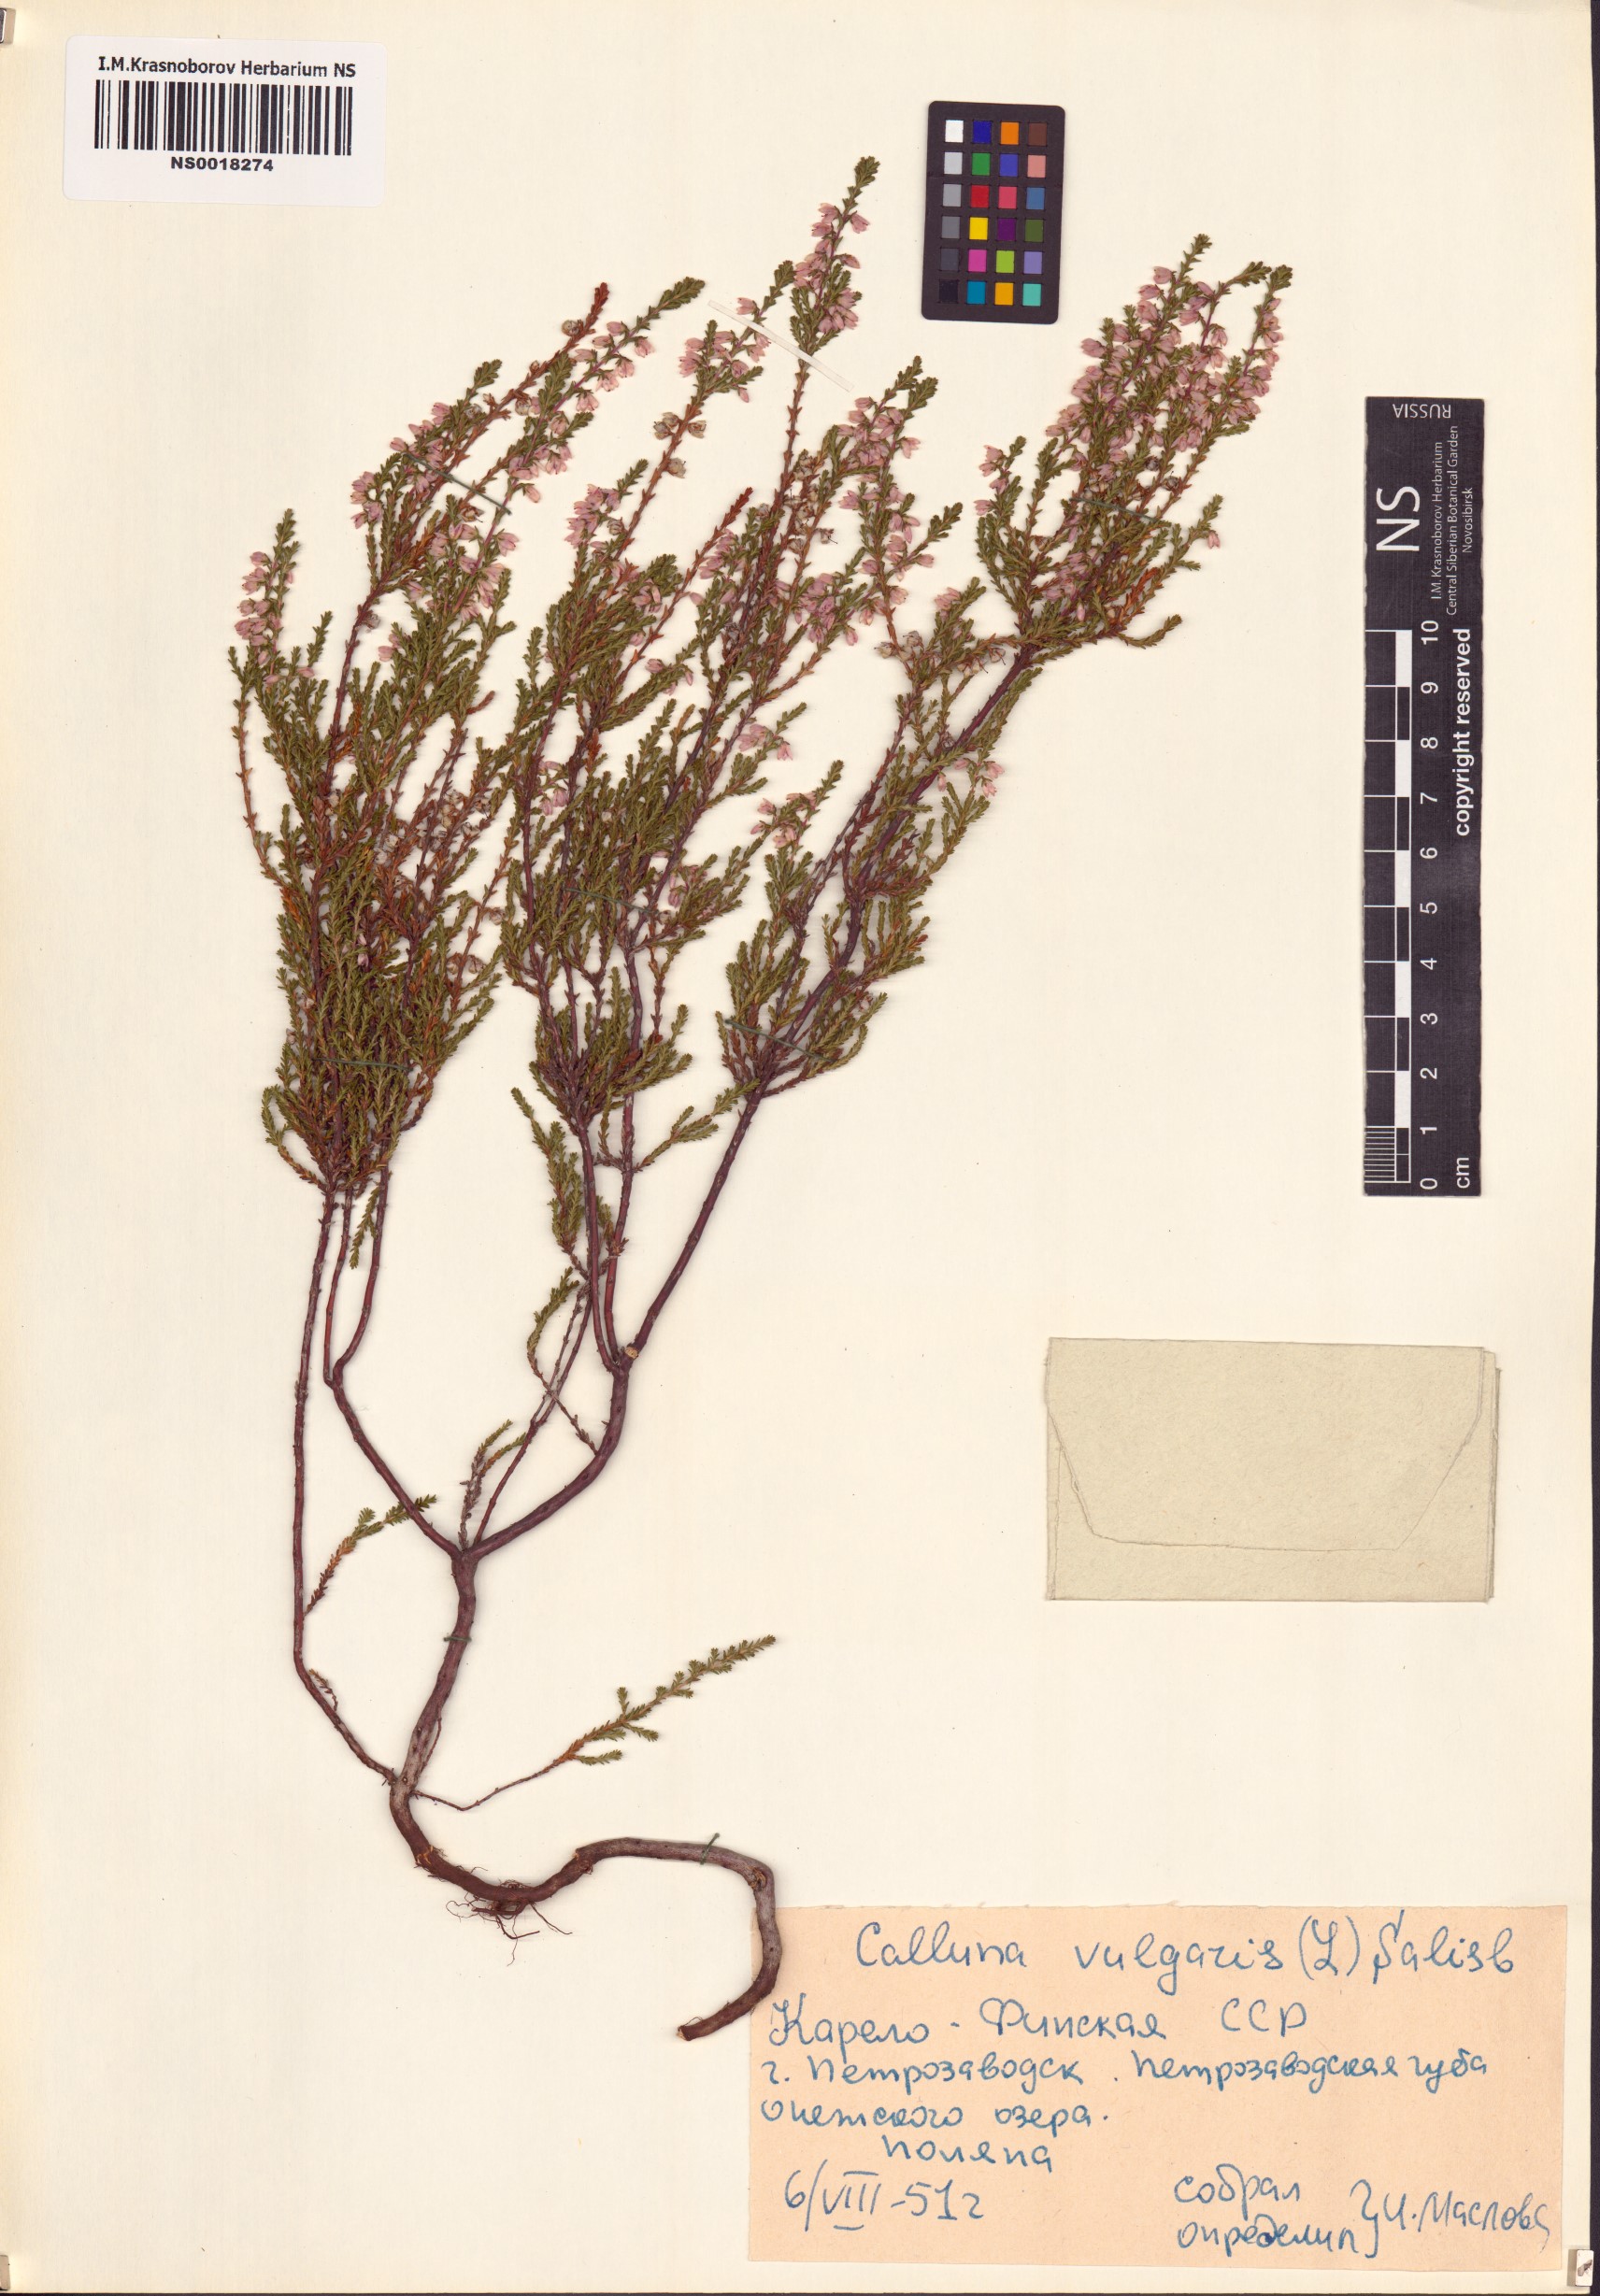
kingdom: Plantae
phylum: Tracheophyta
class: Magnoliopsida
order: Ericales
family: Ericaceae
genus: Calluna
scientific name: Calluna vulgaris
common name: Heather
